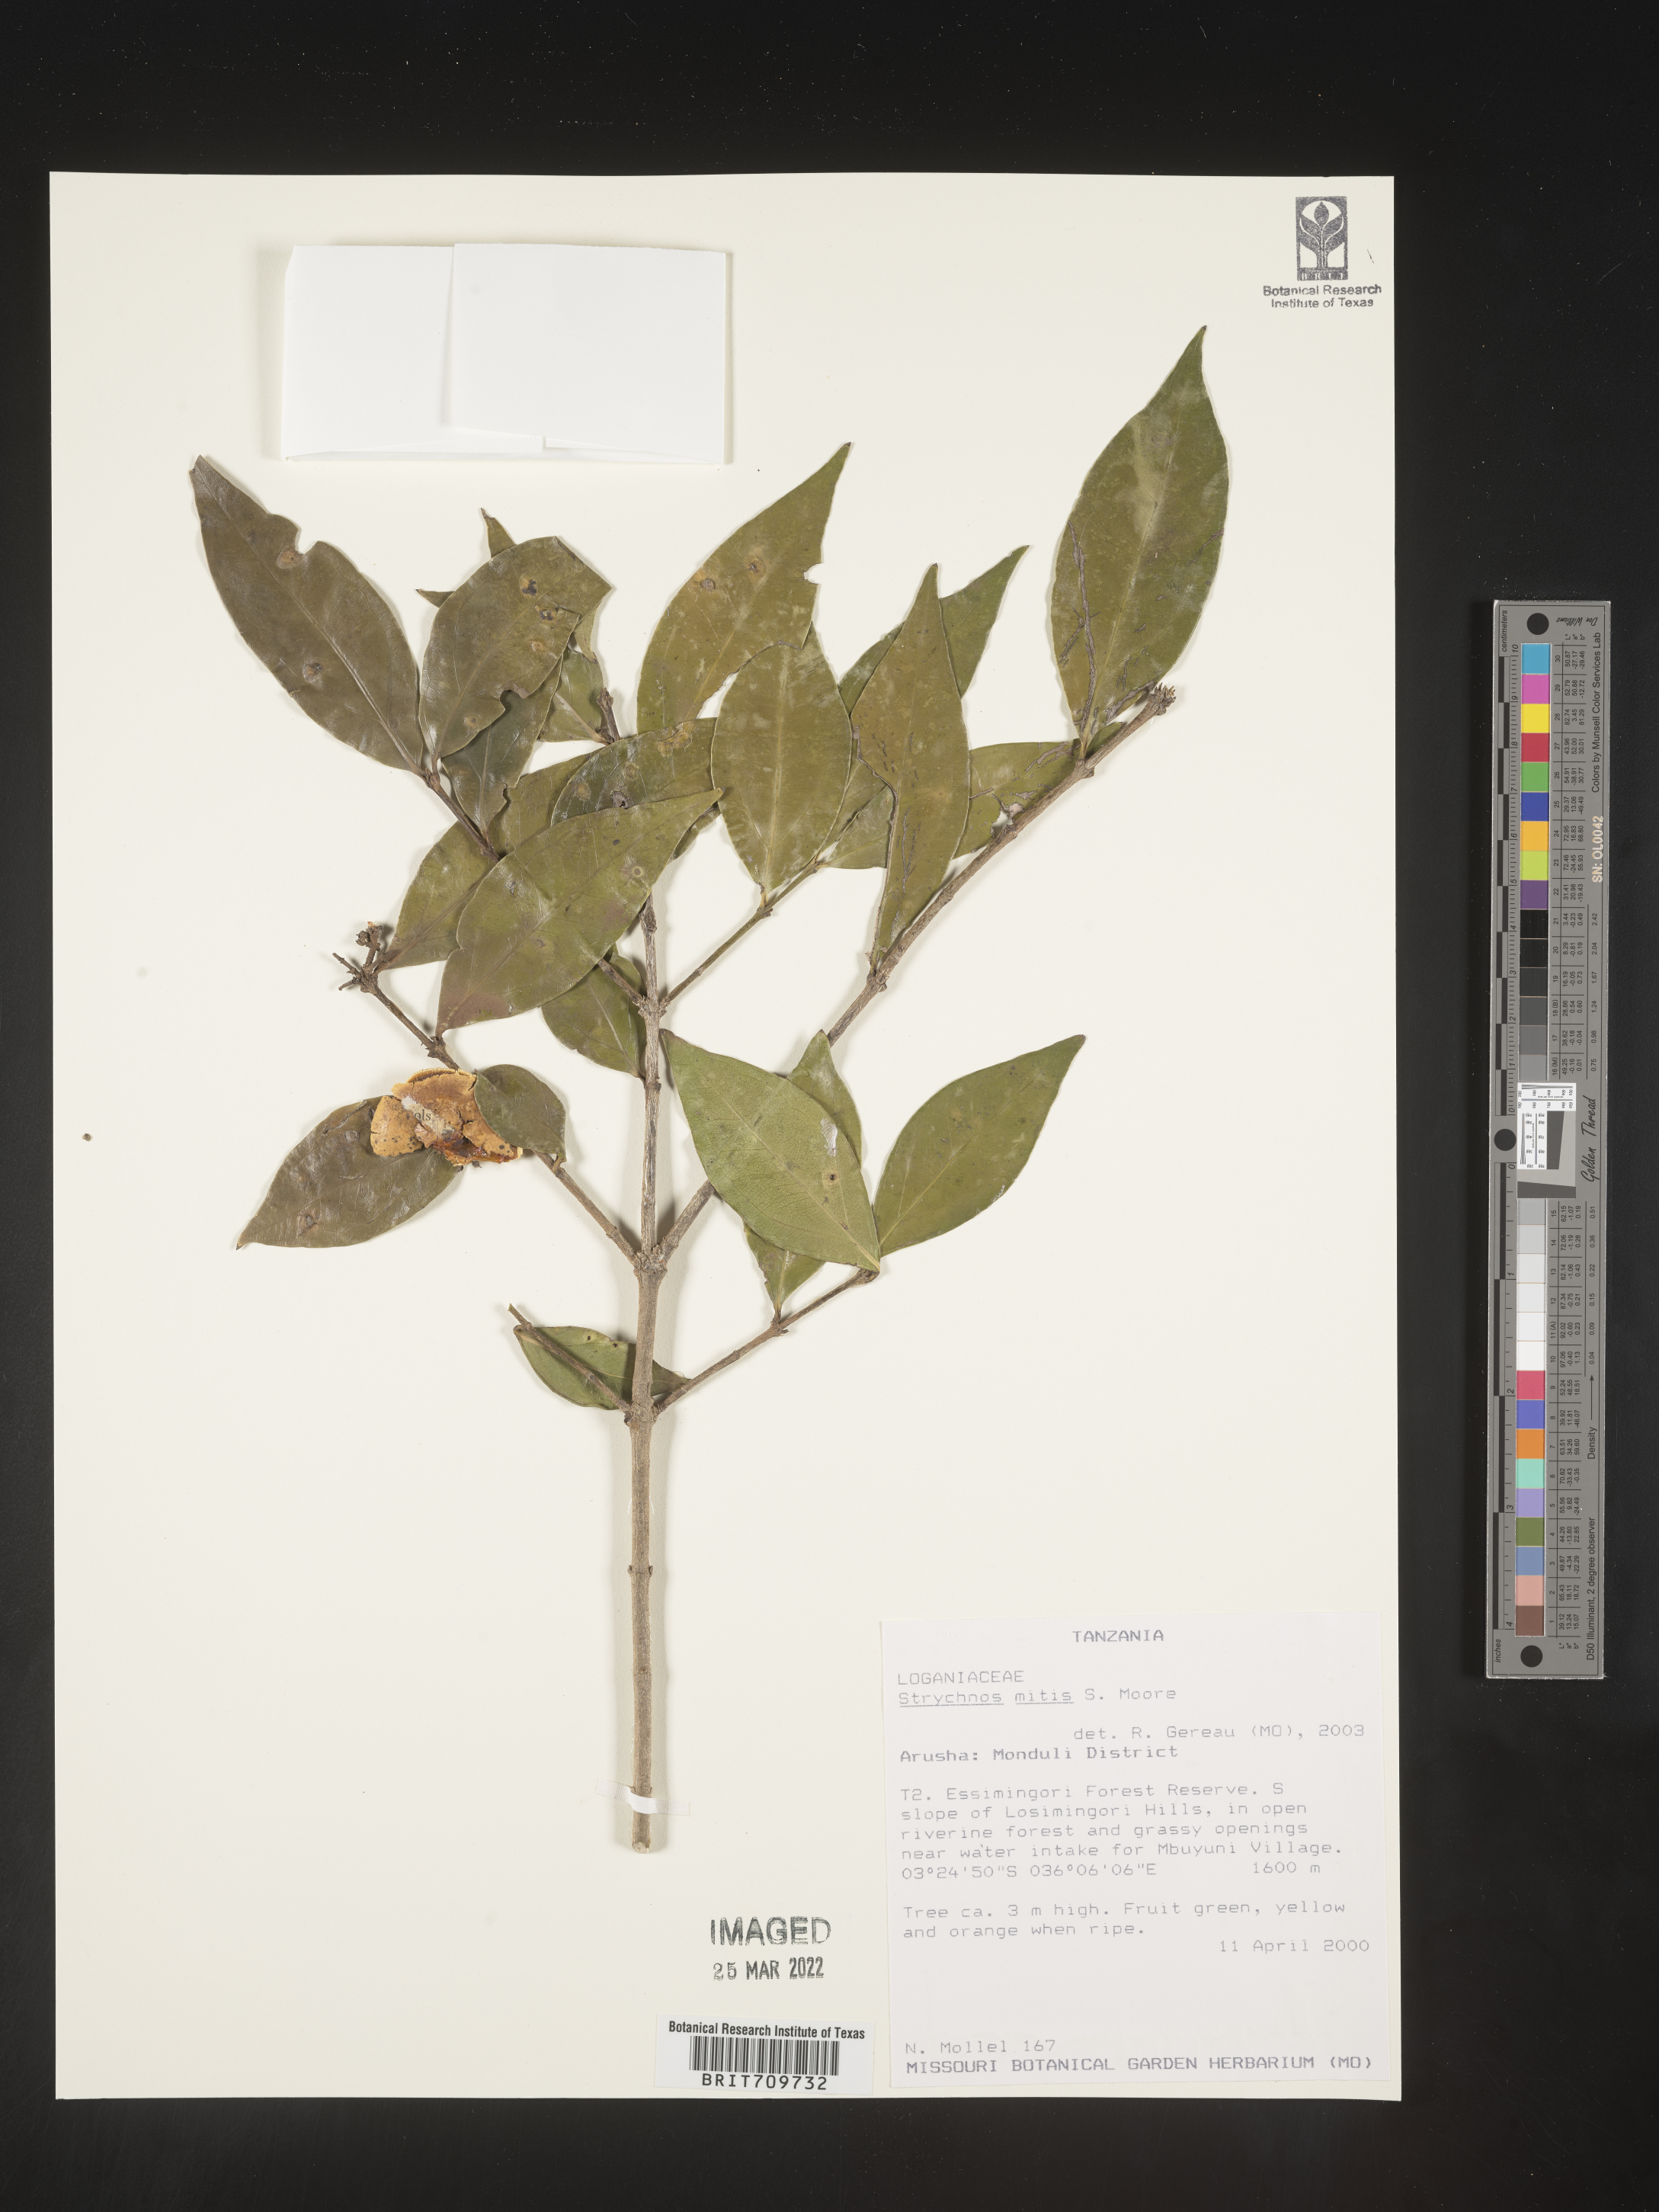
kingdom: Plantae
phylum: Tracheophyta
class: Magnoliopsida
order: Gentianales
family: Loganiaceae
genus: Strychnos
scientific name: Strychnos
